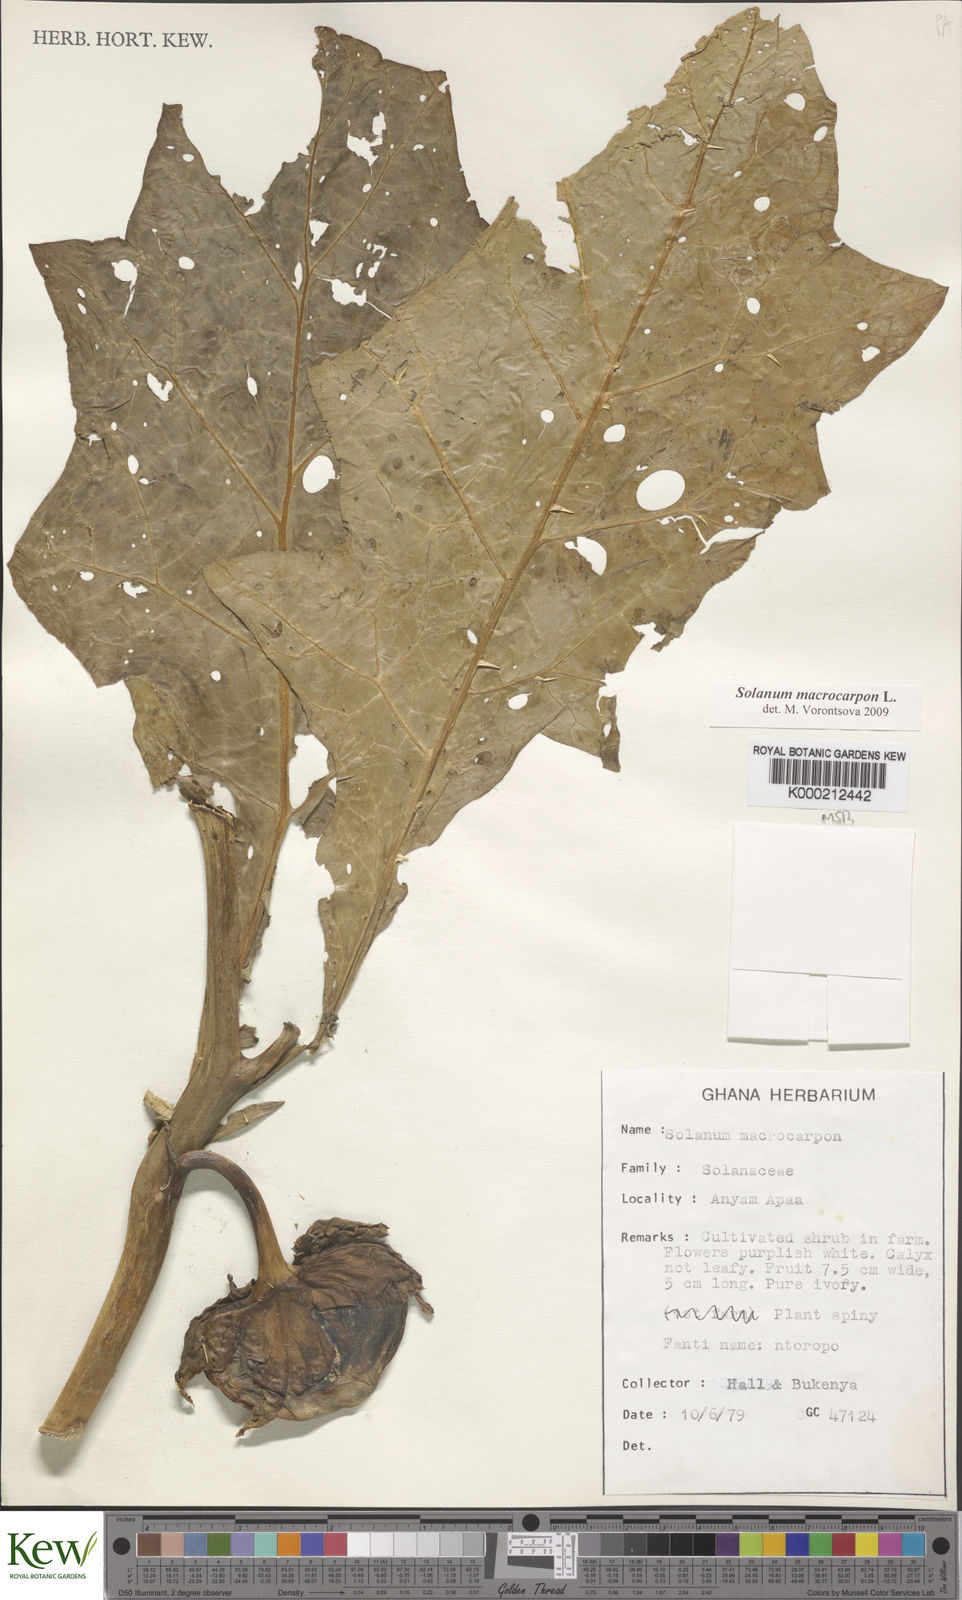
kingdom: Plantae
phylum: Tracheophyta
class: Magnoliopsida
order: Solanales
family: Solanaceae
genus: Solanum
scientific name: Solanum macrocarpon
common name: African eggplant
